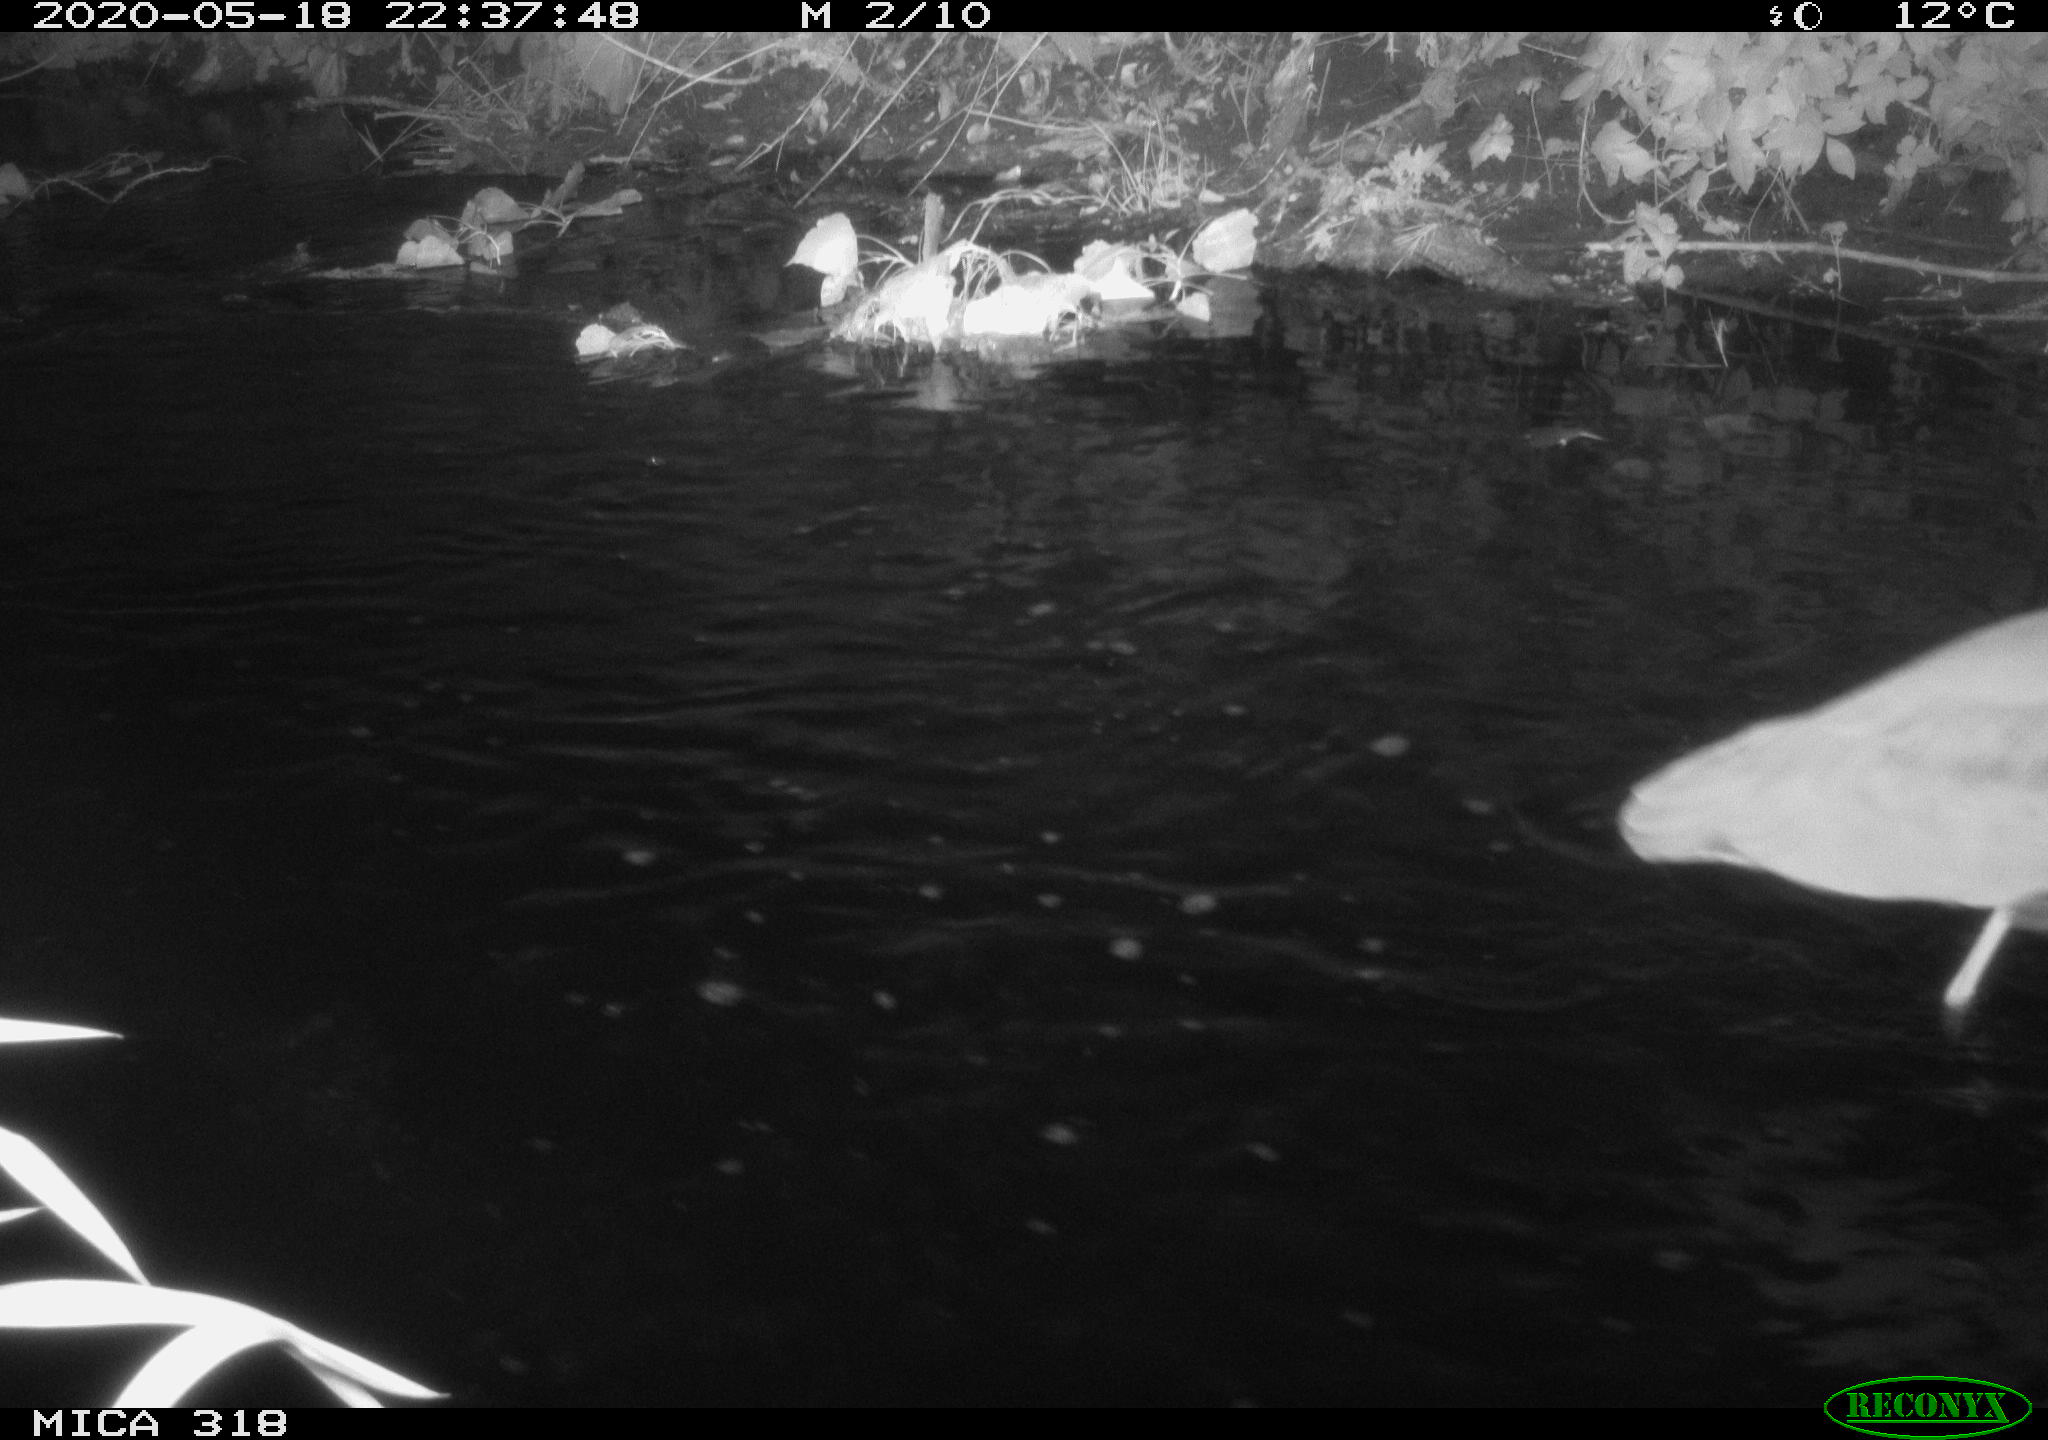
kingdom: Animalia
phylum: Chordata
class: Aves
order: Pelecaniformes
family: Ardeidae
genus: Ardea
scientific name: Ardea cinerea
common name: Grey heron
